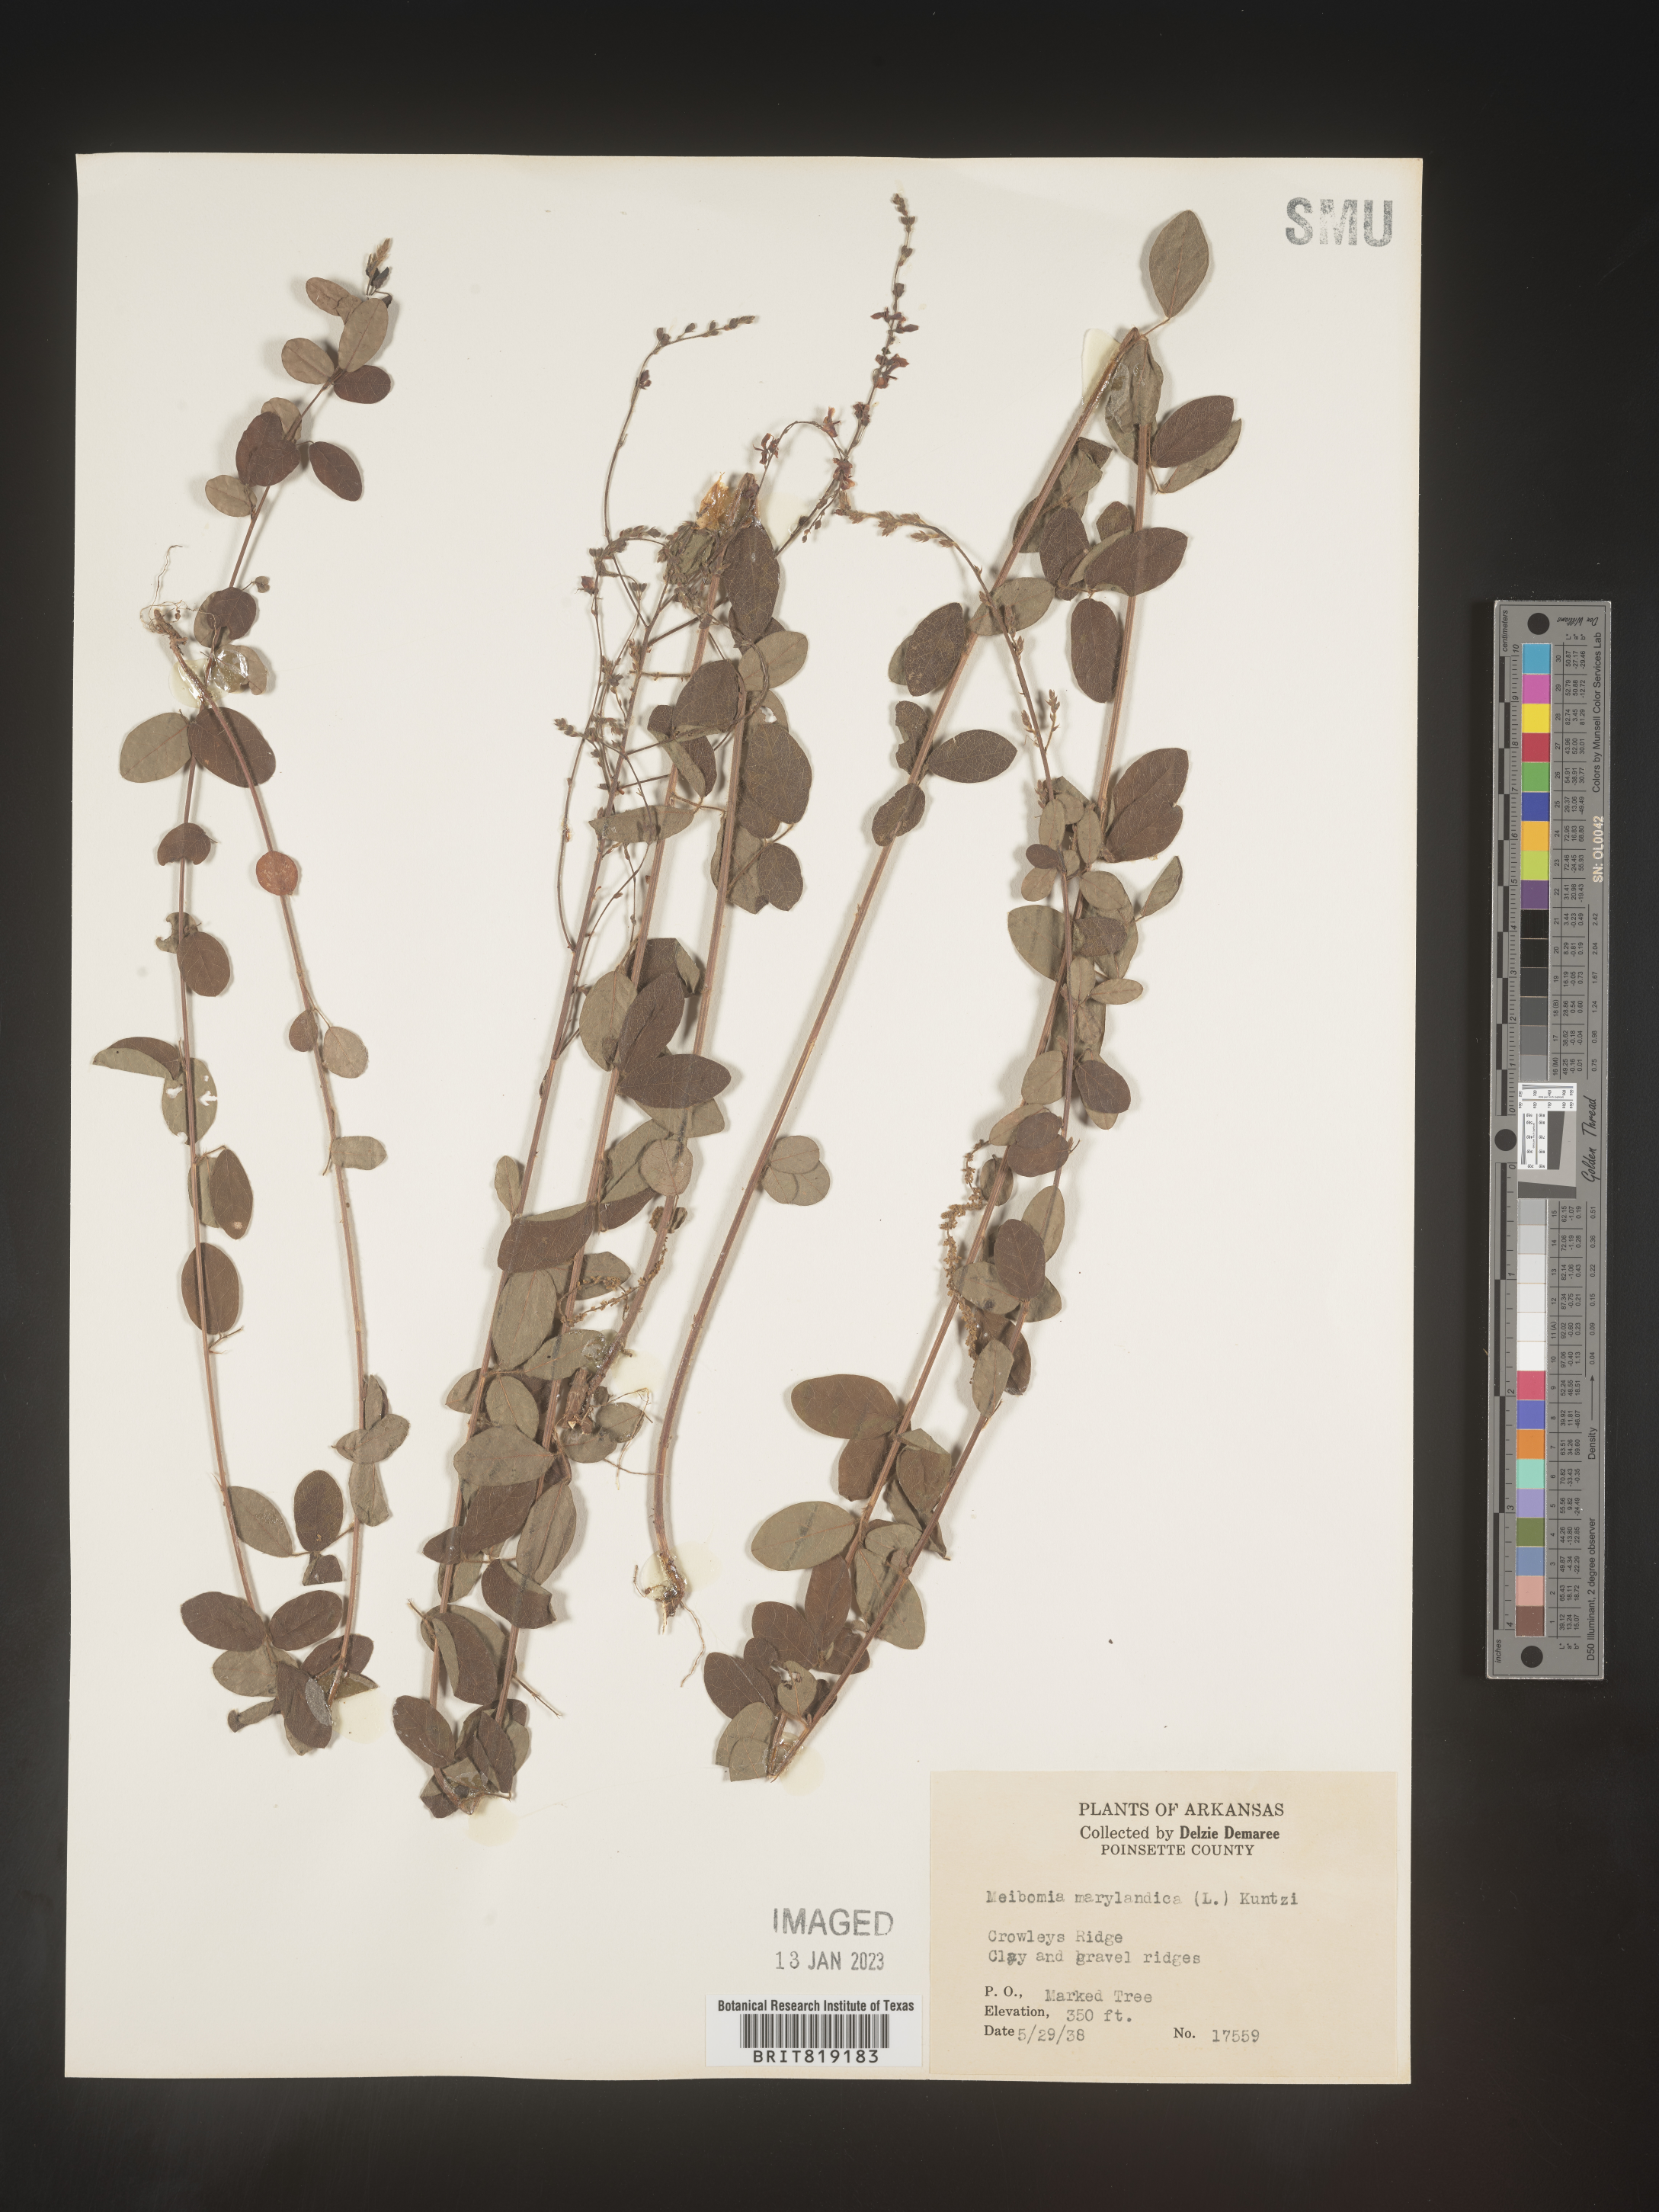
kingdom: Plantae
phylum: Tracheophyta
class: Magnoliopsida
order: Fabales
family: Fabaceae
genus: Desmodium
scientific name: Desmodium marilandicum
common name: Maryland tick-trefoil
